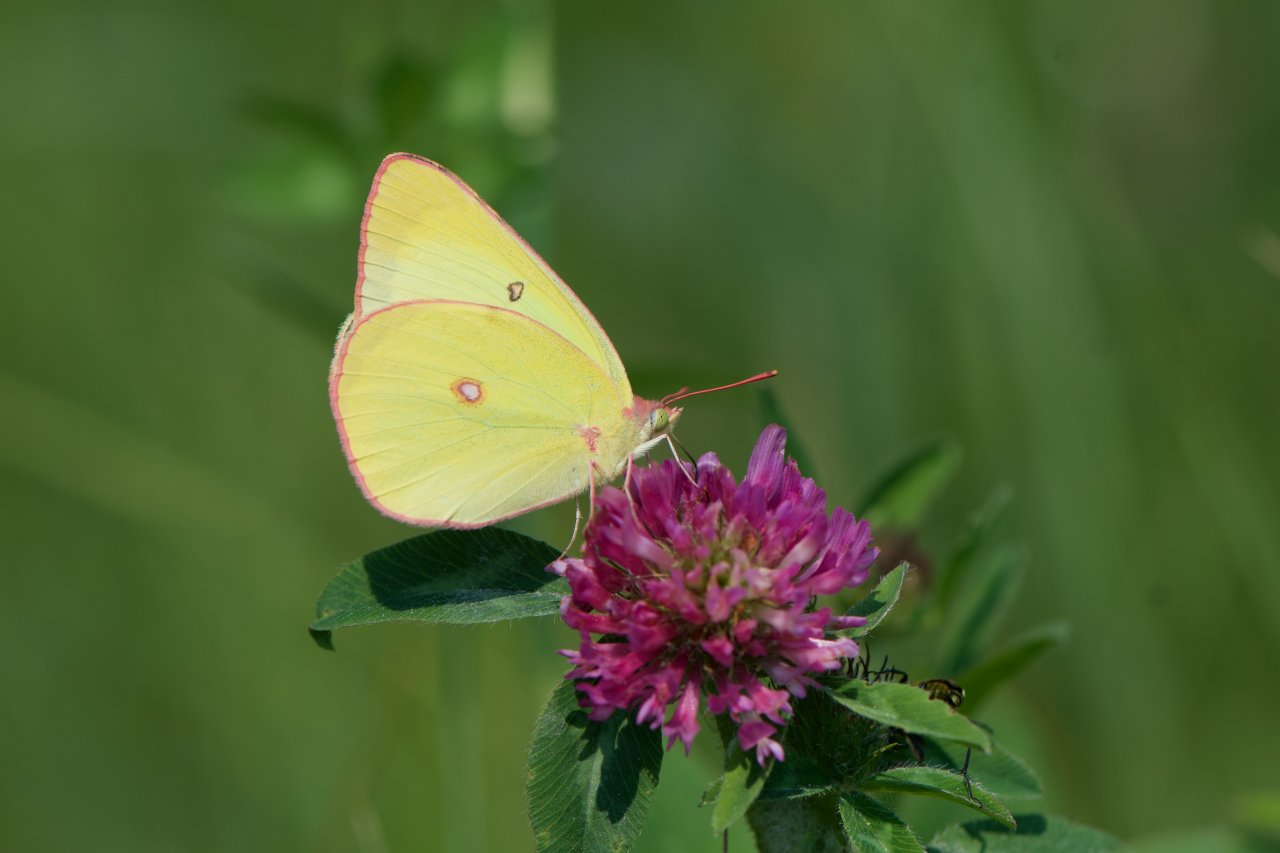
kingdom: Animalia
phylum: Arthropoda
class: Insecta
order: Lepidoptera
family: Pieridae
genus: Colias
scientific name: Colias interior
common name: Pink-edged Sulphur
